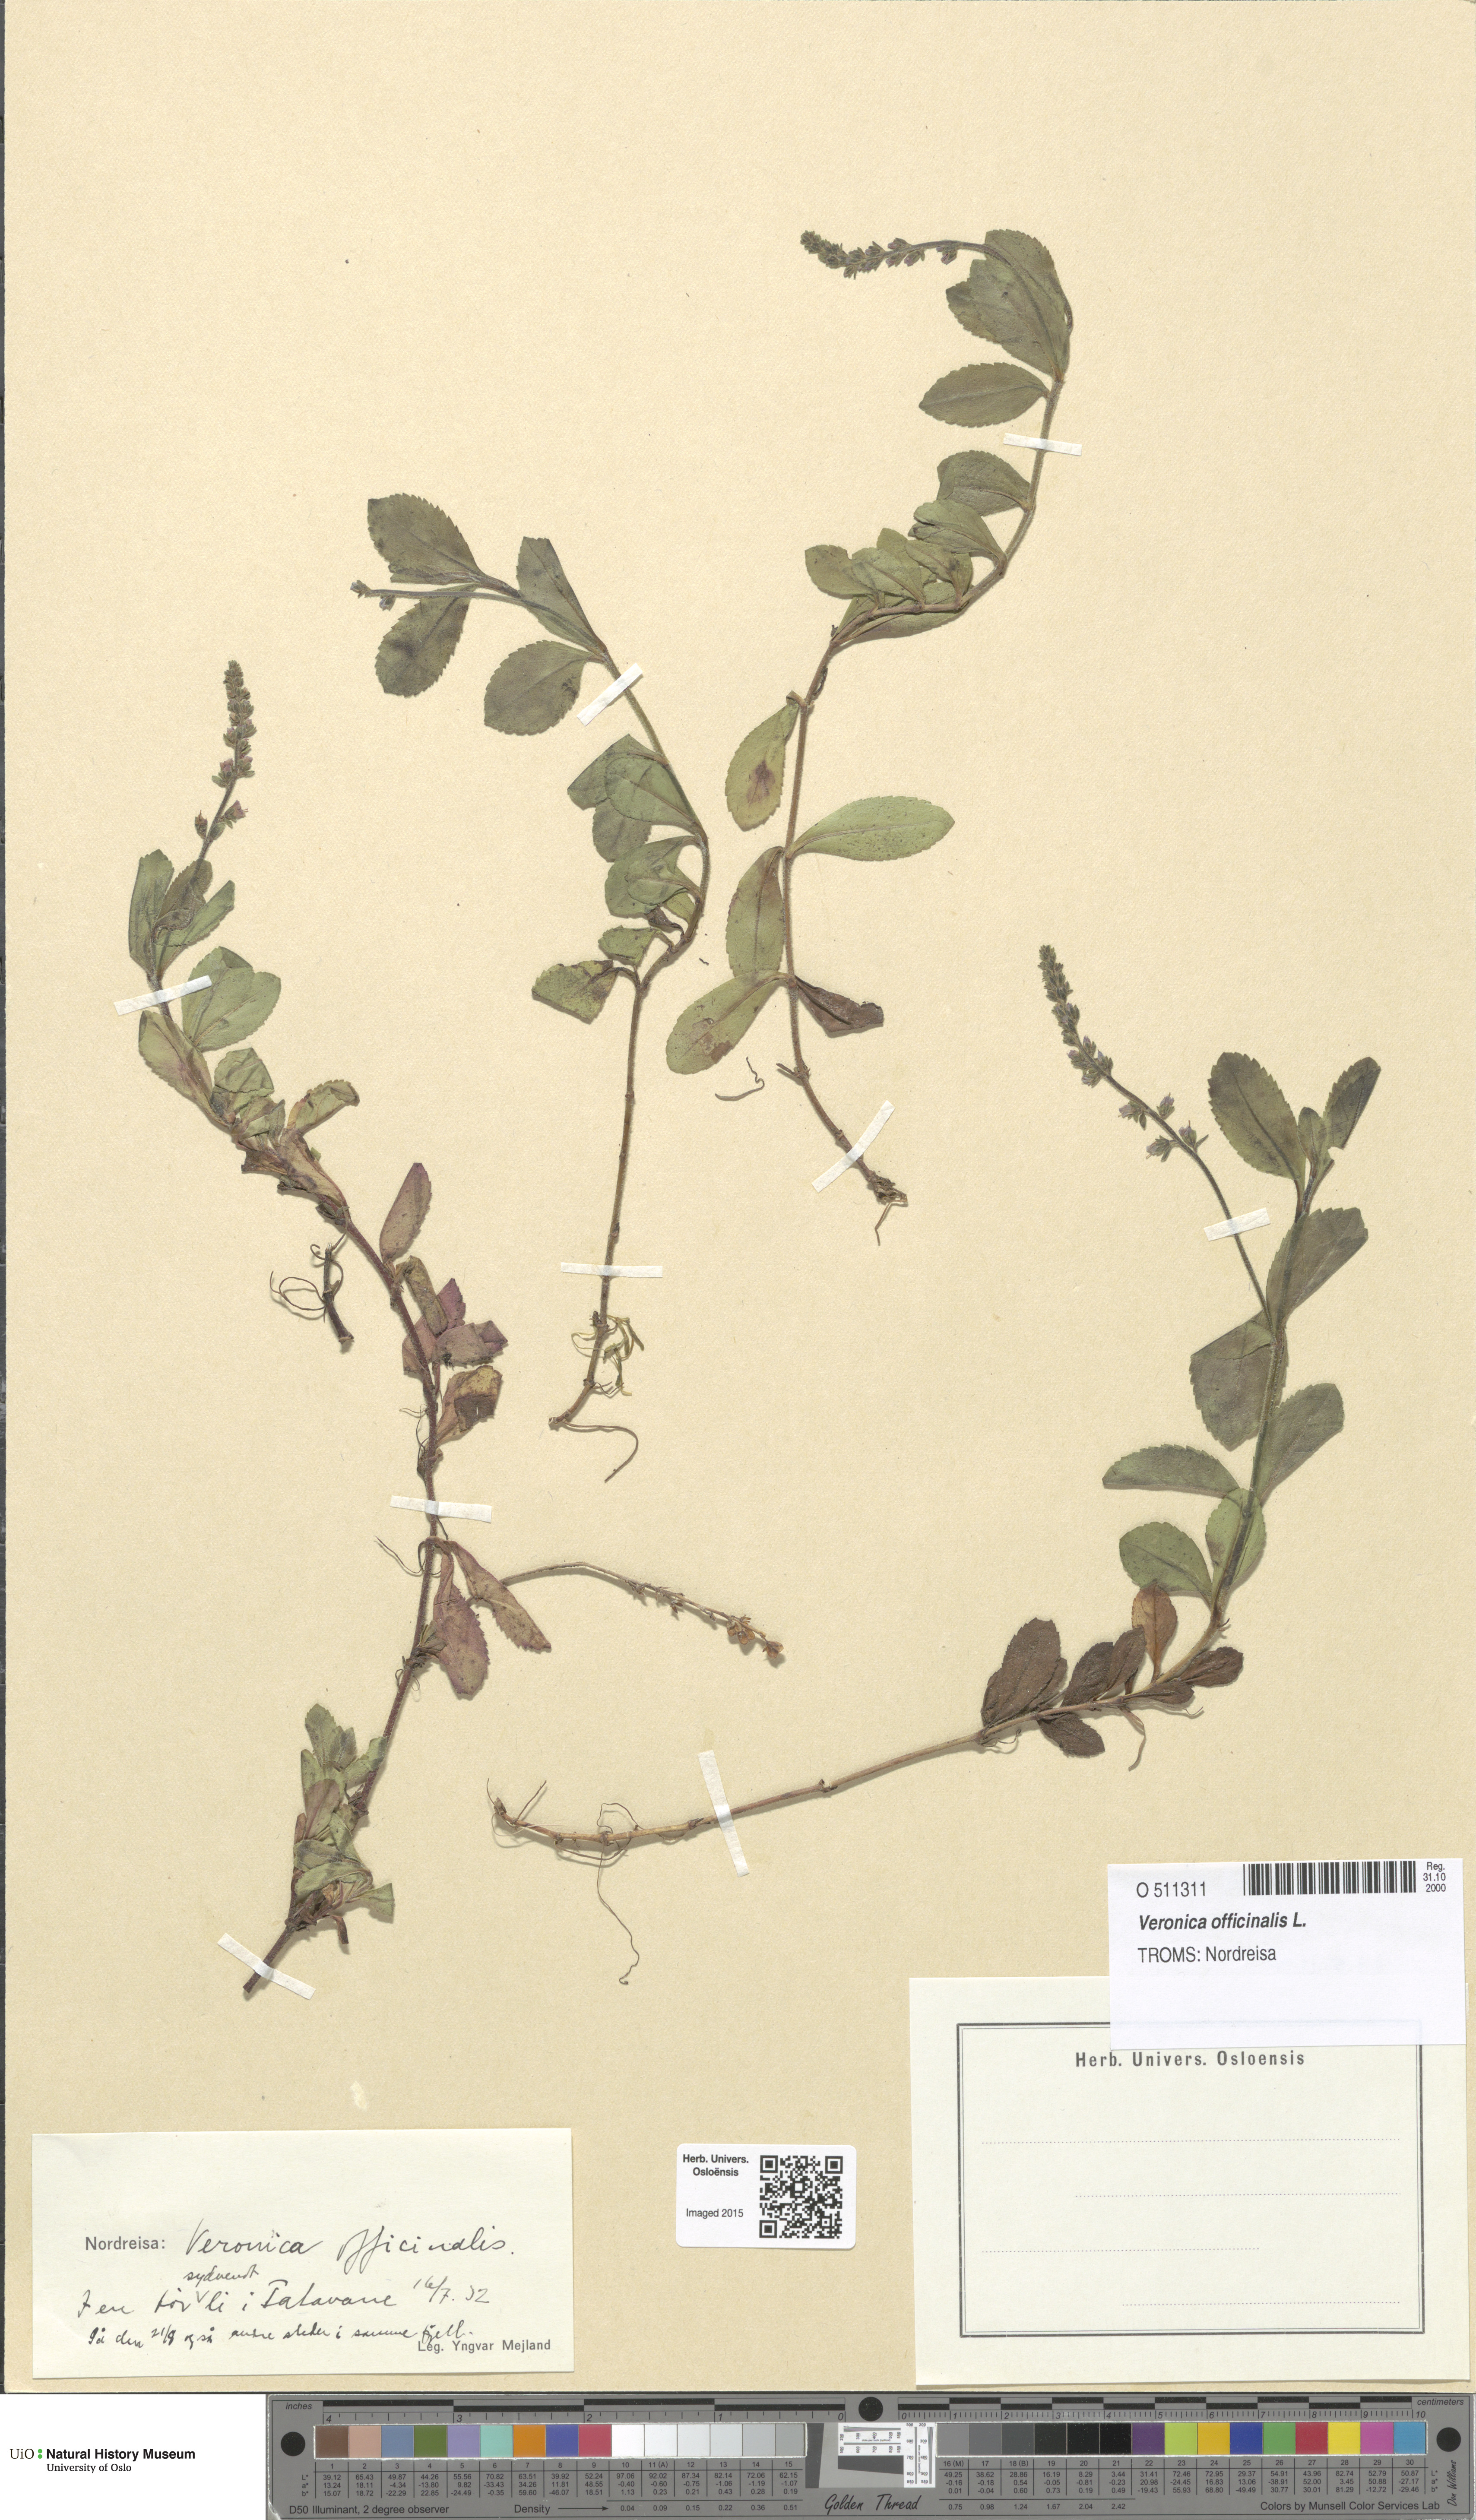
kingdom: Plantae
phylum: Tracheophyta
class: Magnoliopsida
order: Lamiales
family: Plantaginaceae
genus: Veronica
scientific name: Veronica officinalis
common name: Common speedwell
